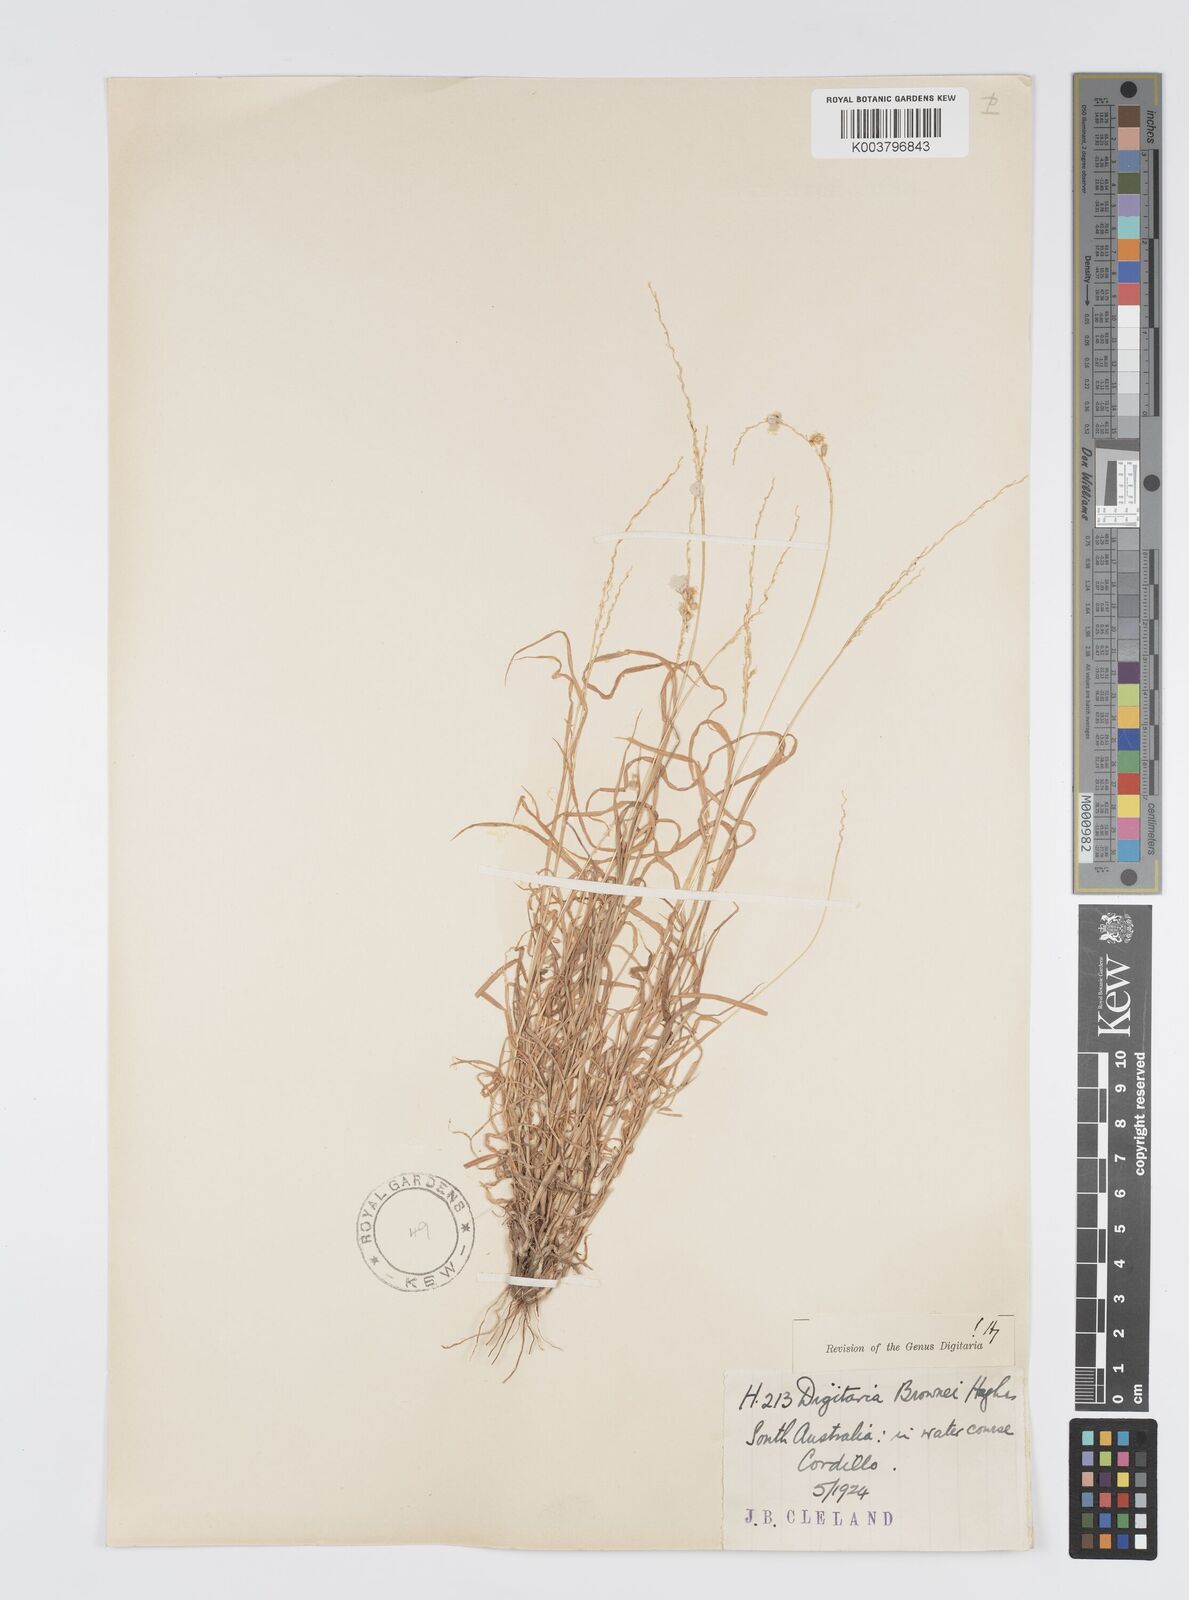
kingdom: Plantae
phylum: Tracheophyta
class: Liliopsida
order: Poales
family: Poaceae
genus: Digitaria
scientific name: Digitaria brownii
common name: Cotton grass
